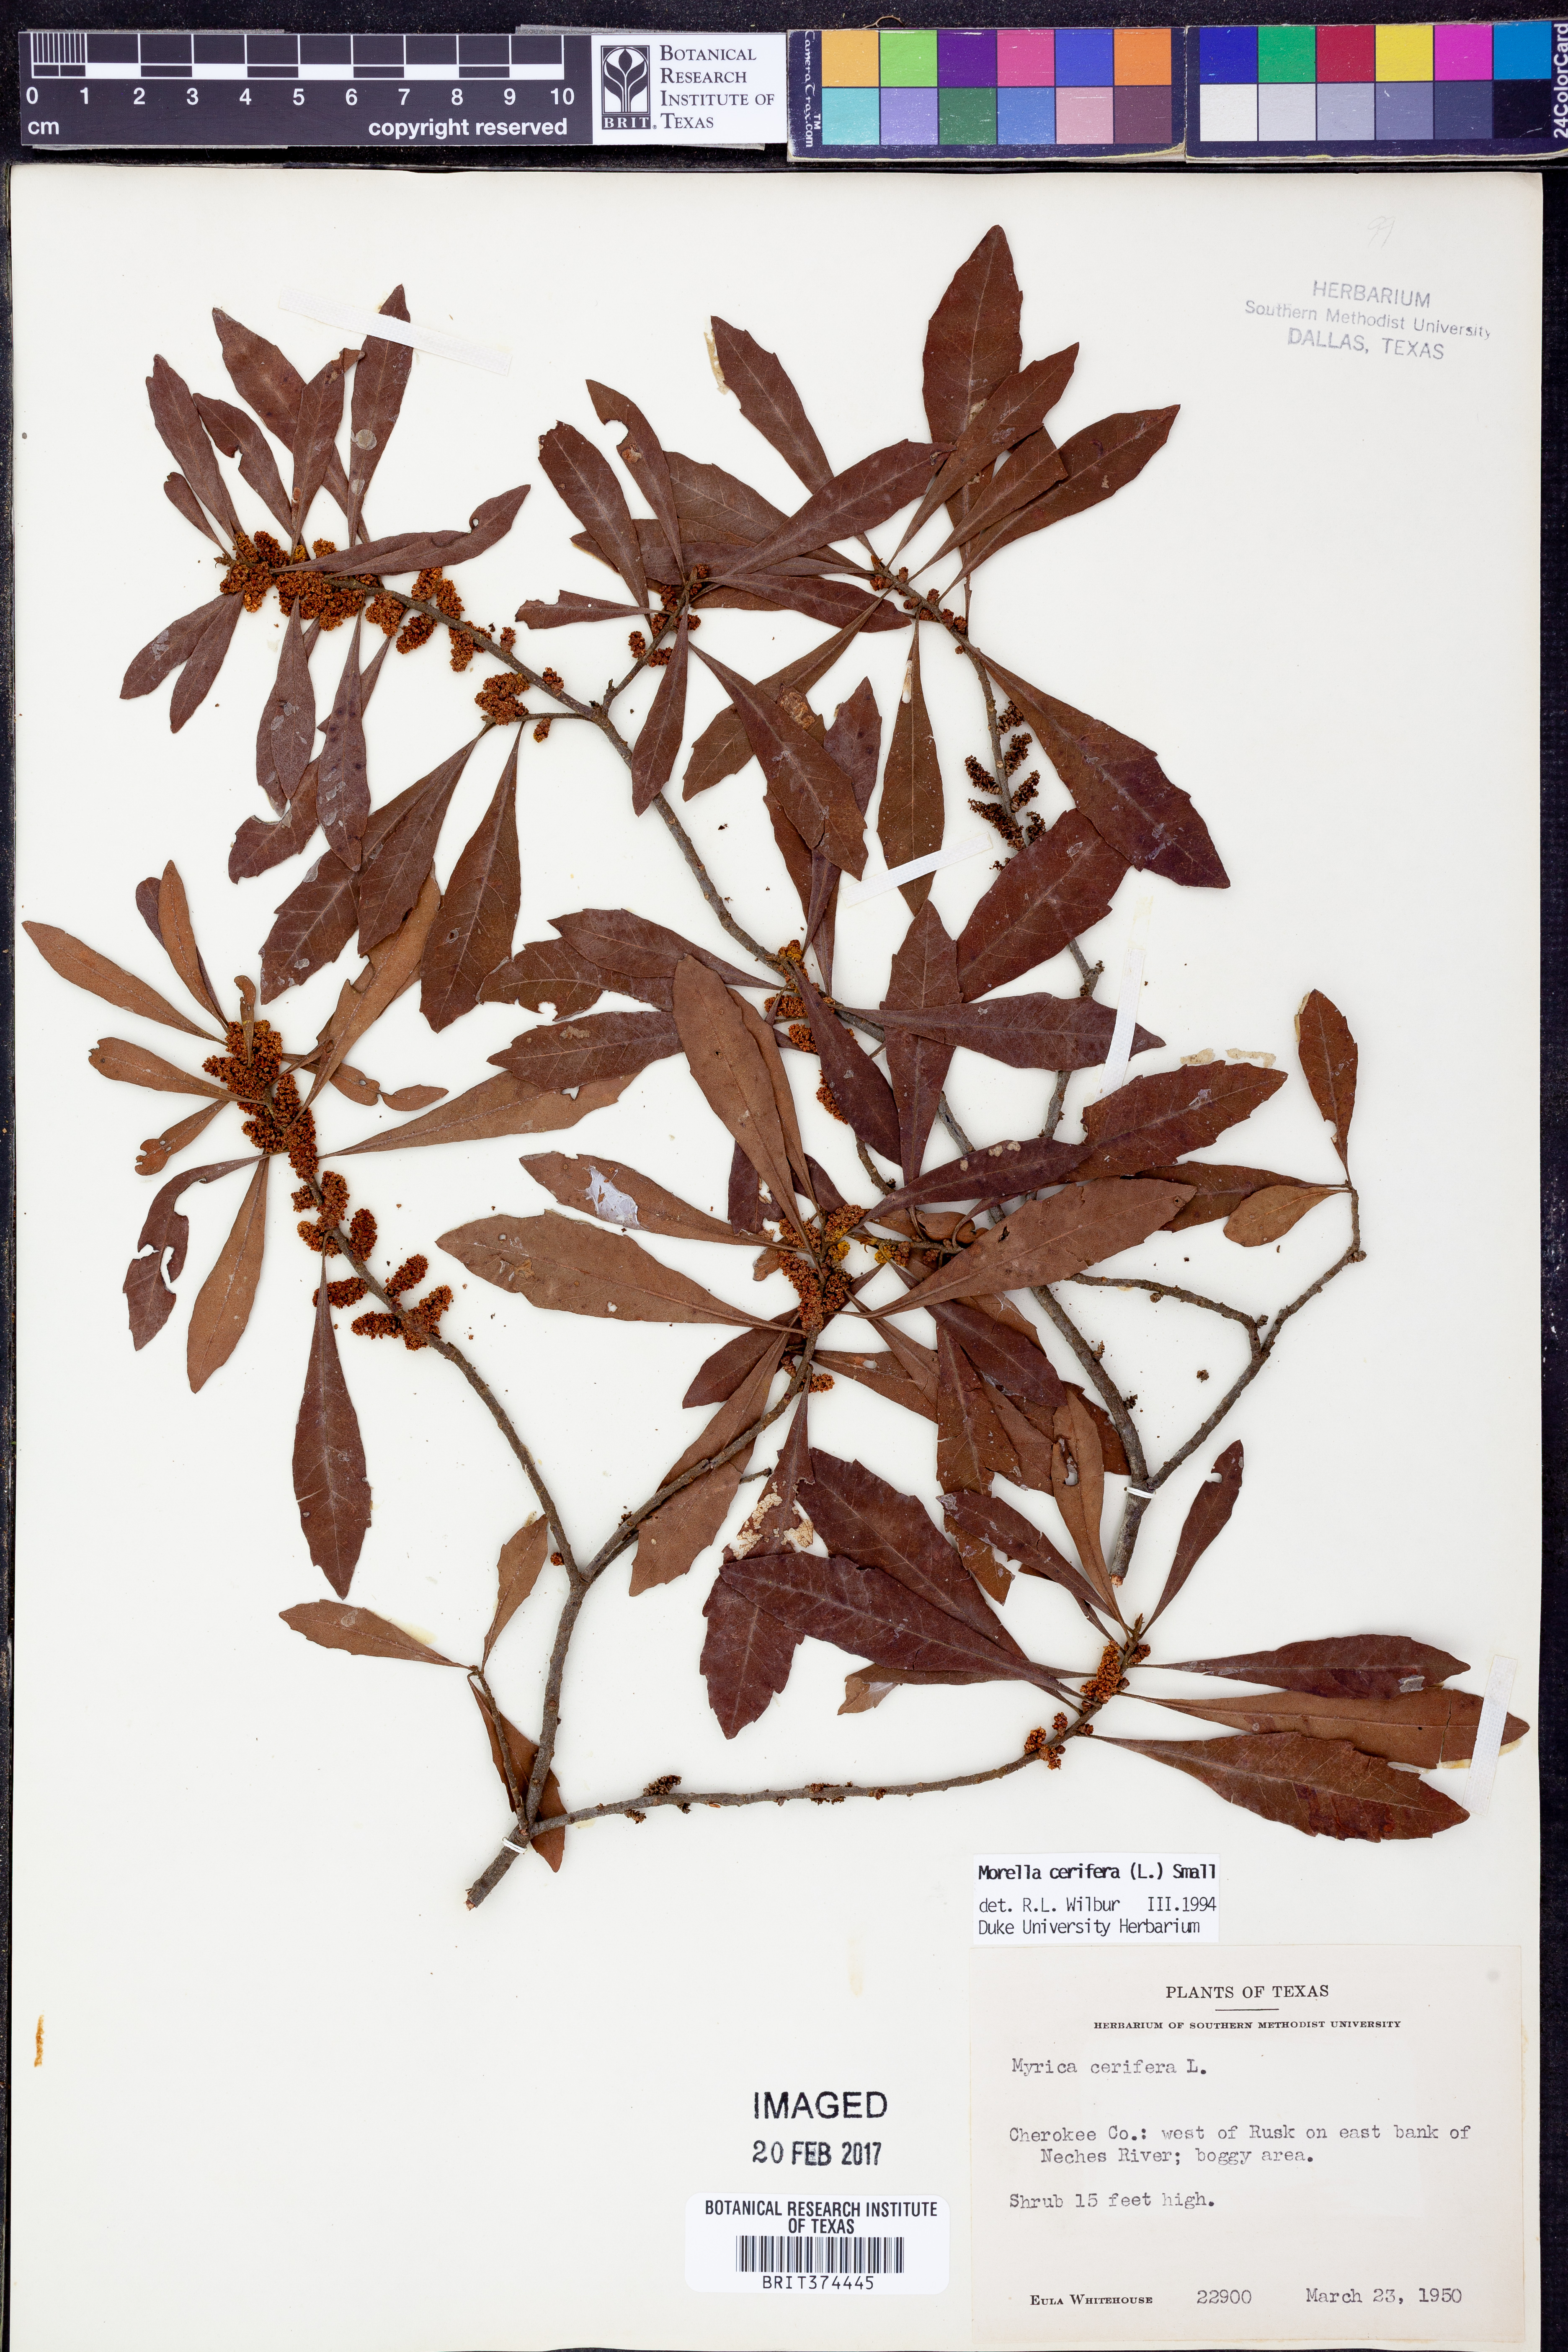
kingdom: Plantae
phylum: Tracheophyta
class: Magnoliopsida
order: Fagales
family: Myricaceae
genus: Morella
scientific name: Morella cerifera
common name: Wax myrtle
